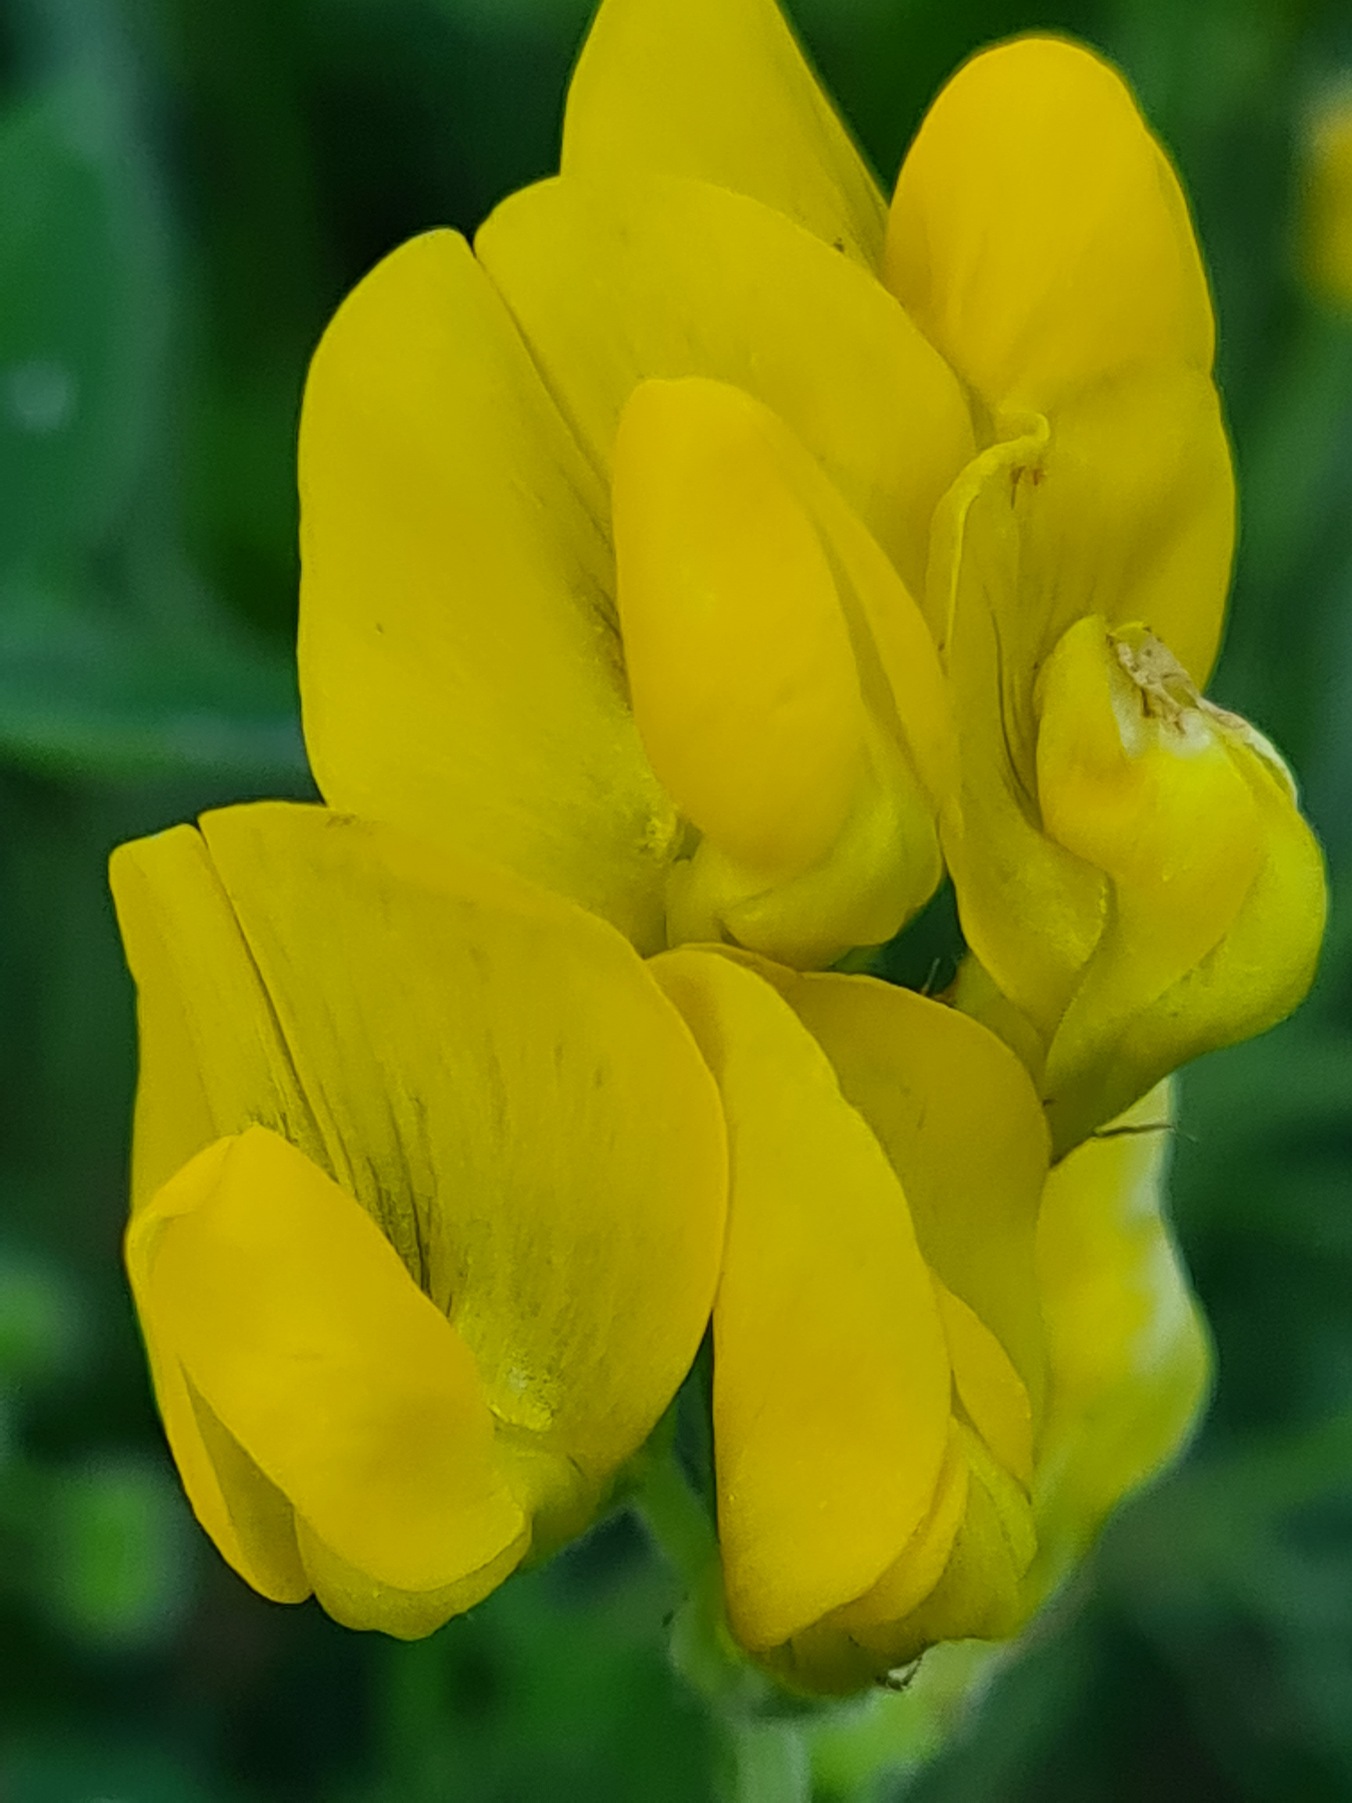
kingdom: Plantae
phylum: Tracheophyta
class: Magnoliopsida
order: Fabales
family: Fabaceae
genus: Lathyrus
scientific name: Lathyrus pratensis
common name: Gul fladbælg
